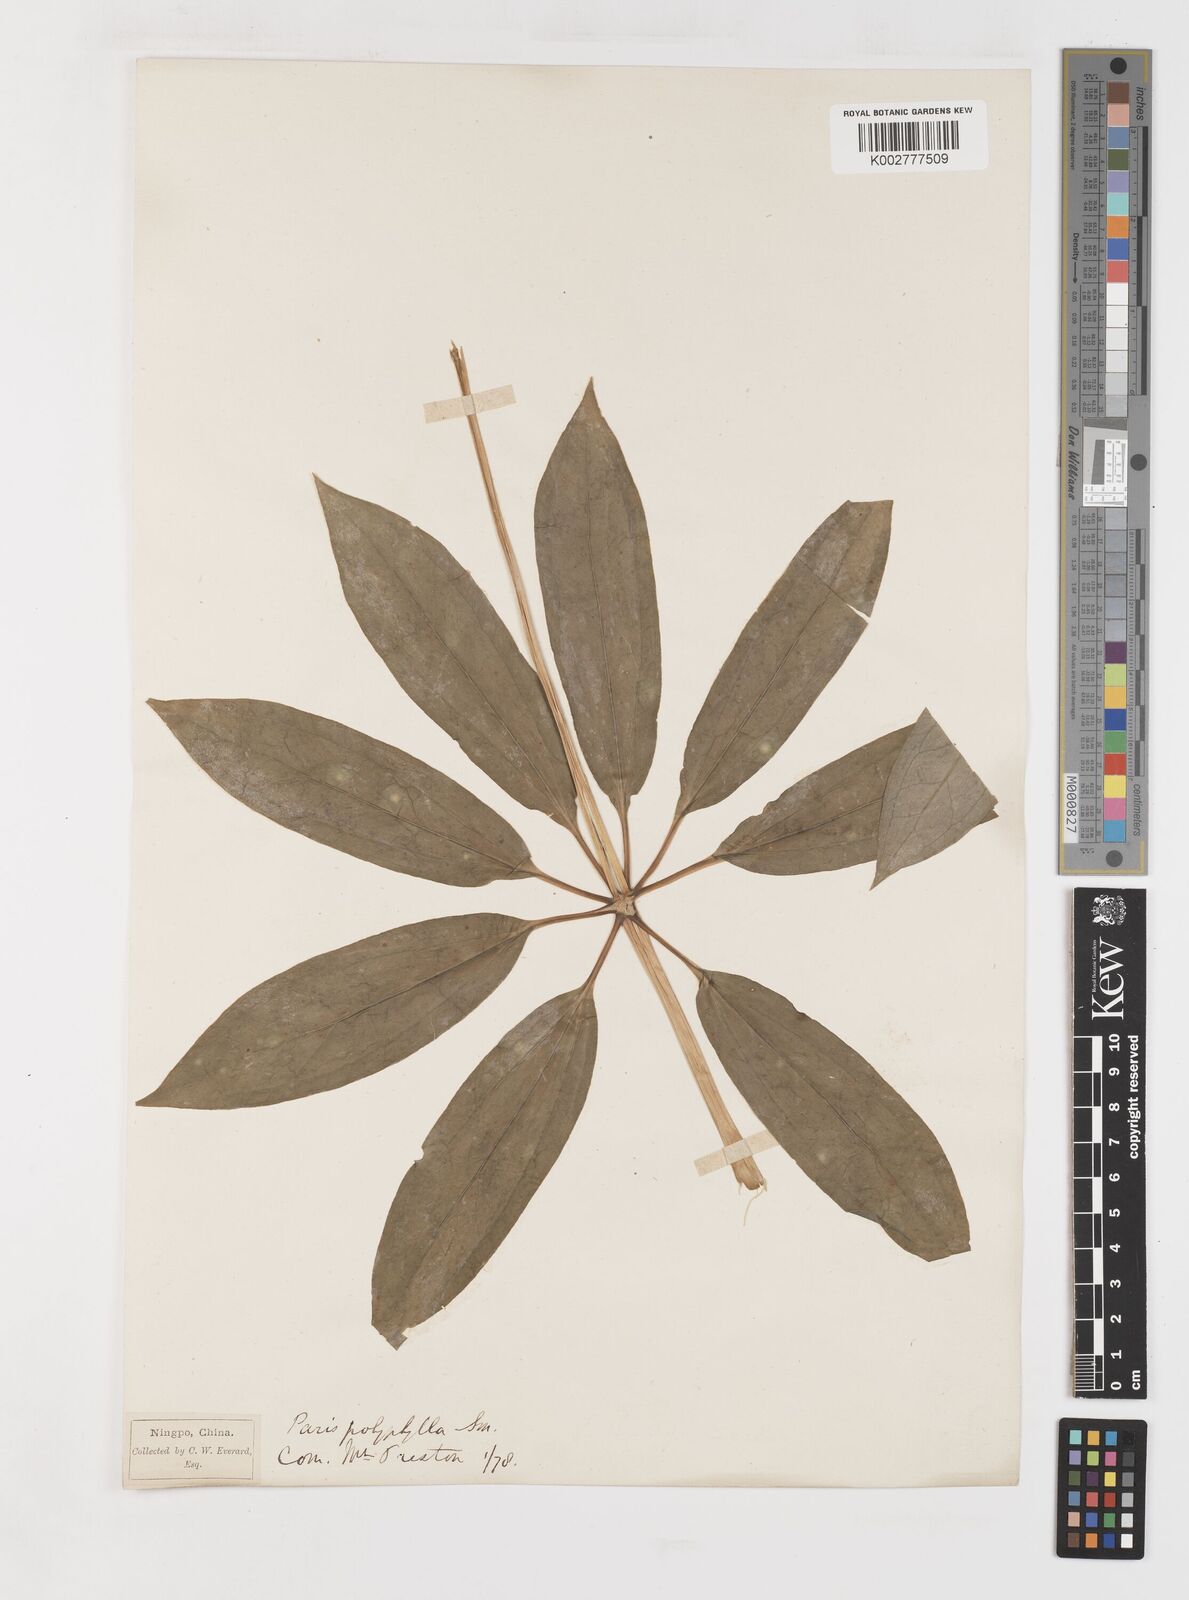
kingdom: Plantae
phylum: Tracheophyta
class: Liliopsida
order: Liliales
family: Melanthiaceae
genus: Paris
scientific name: Paris delavayi
